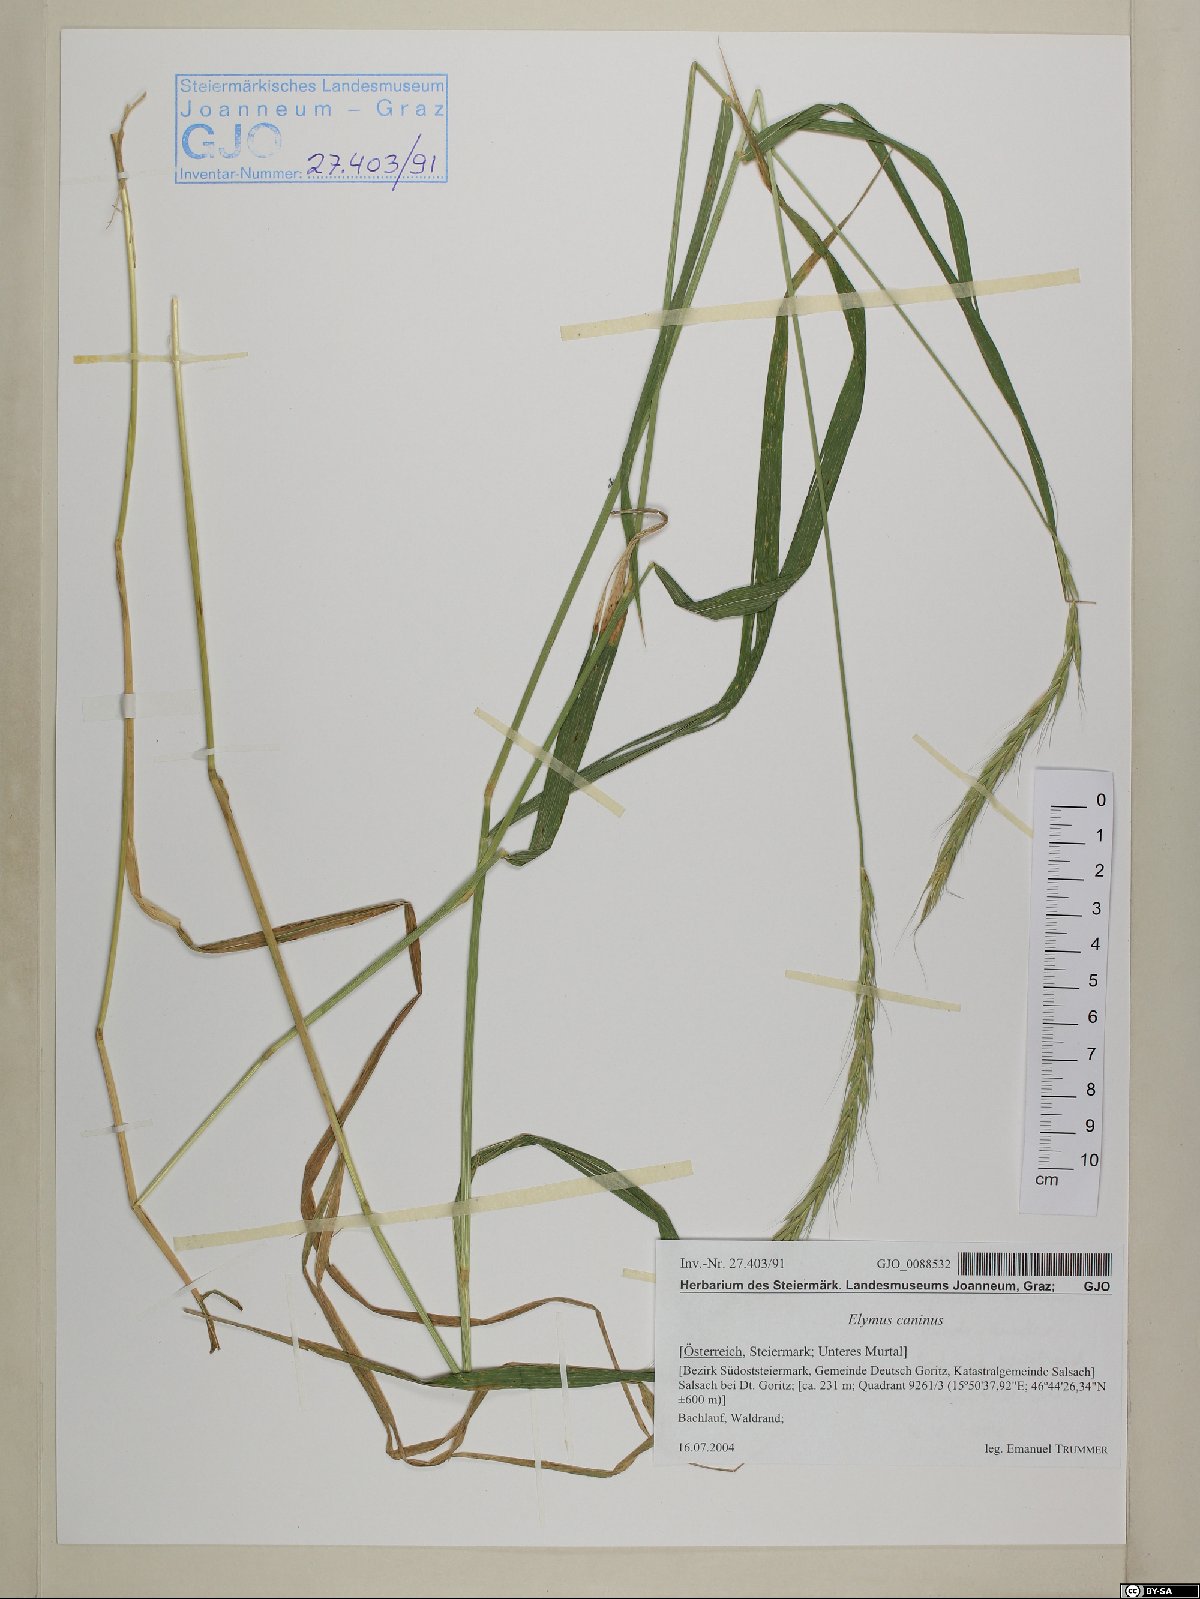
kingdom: Plantae
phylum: Tracheophyta
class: Liliopsida
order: Poales
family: Poaceae
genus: Elymus
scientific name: Elymus caninus
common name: Bearded couch
